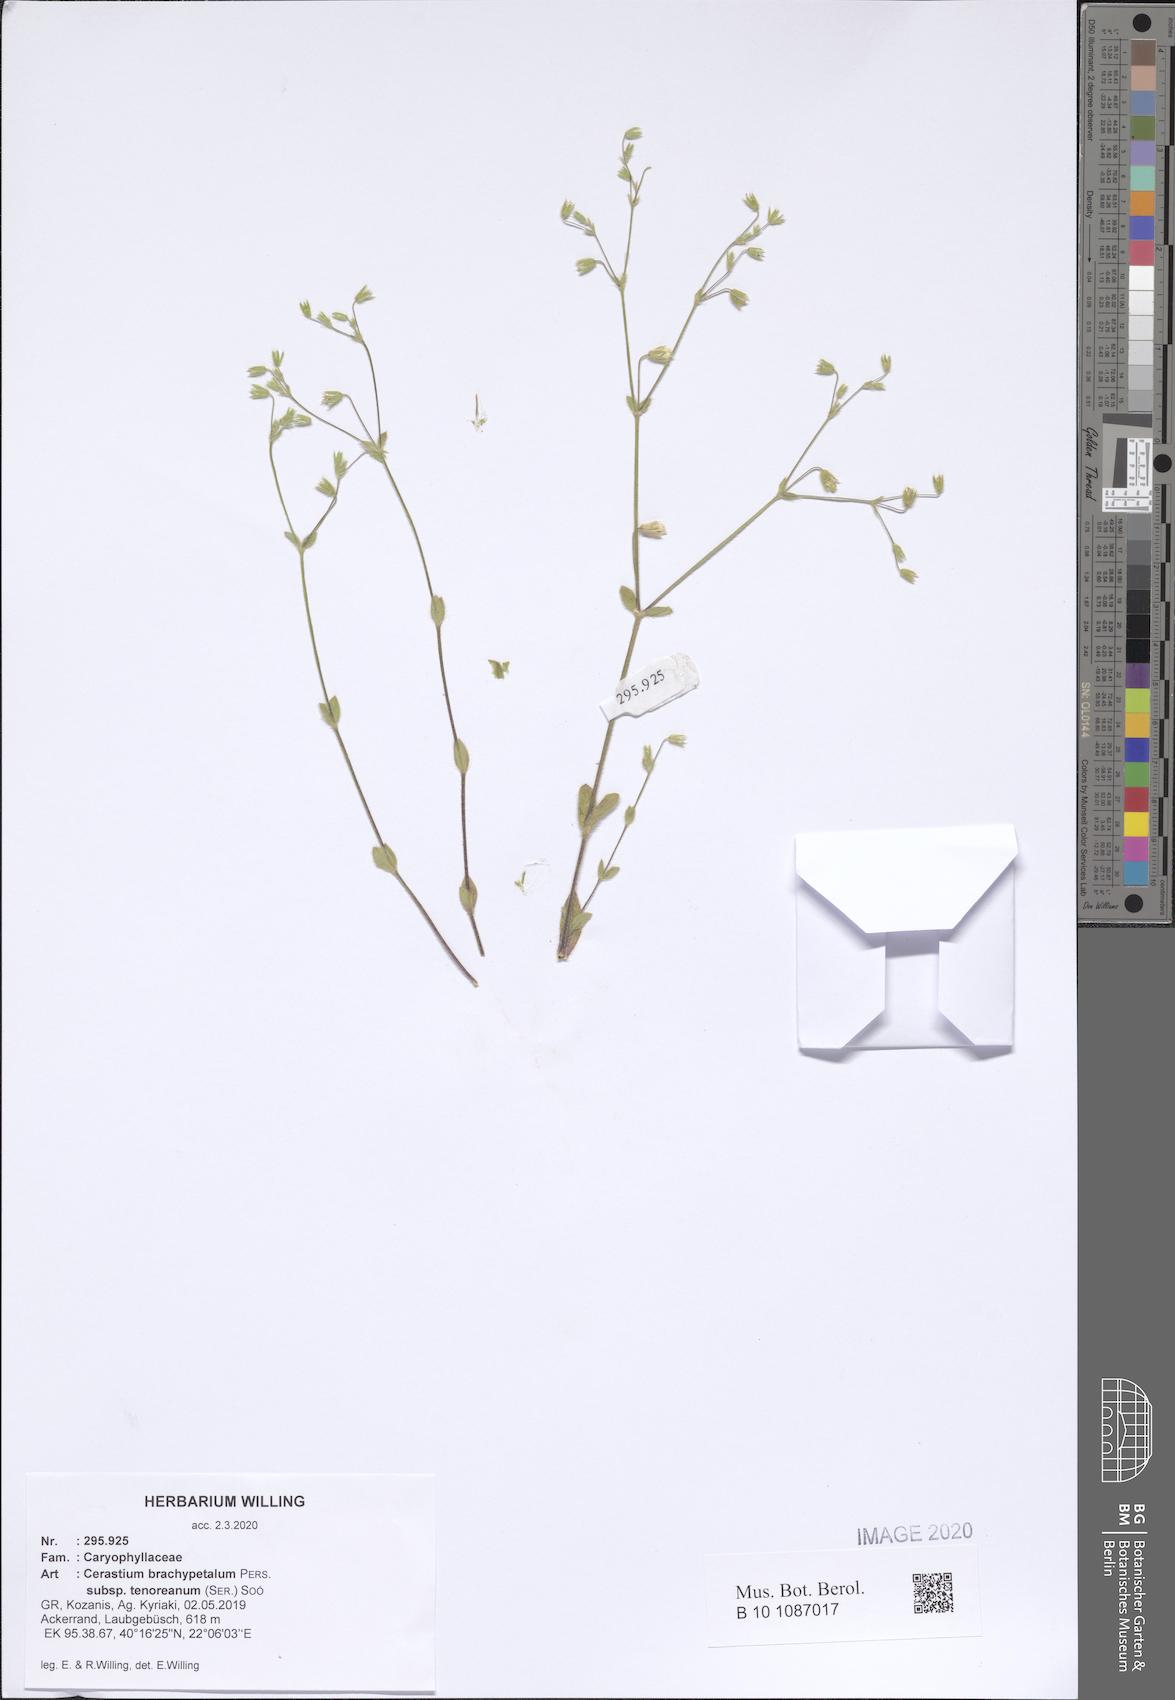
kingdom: Plantae
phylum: Tracheophyta
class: Magnoliopsida
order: Caryophyllales
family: Caryophyllaceae
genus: Cerastium
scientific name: Cerastium tenoreanum
